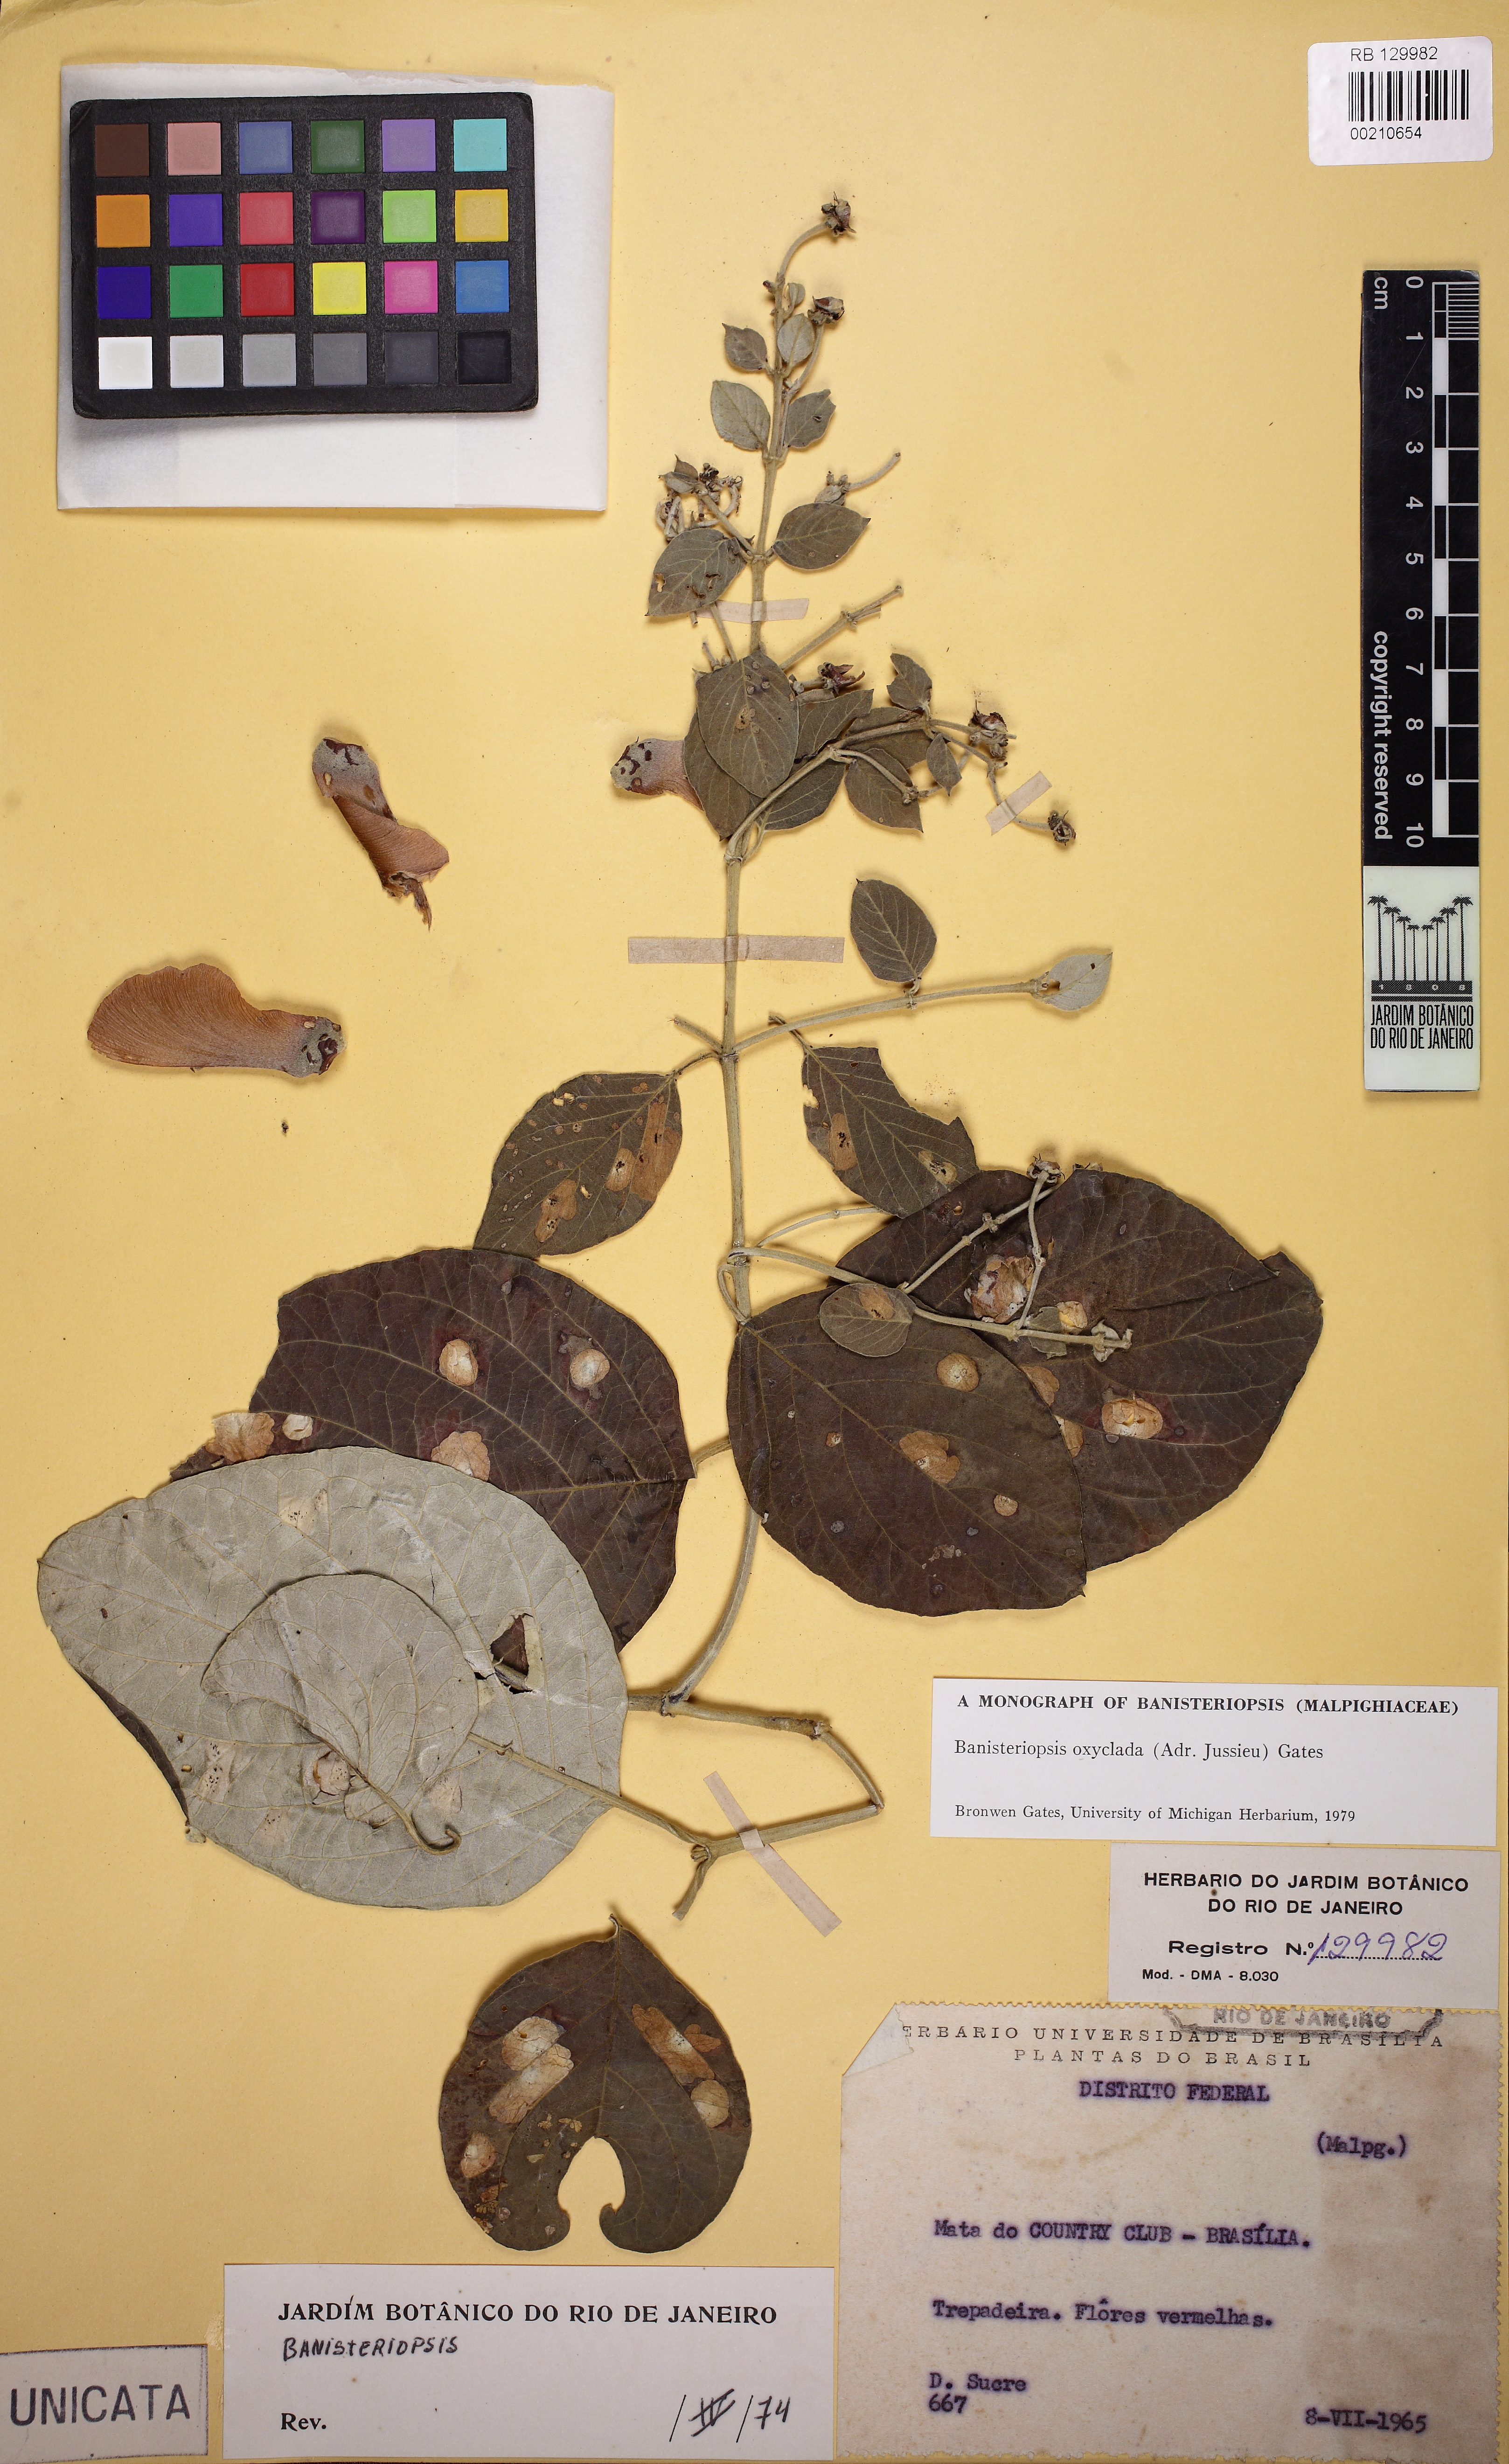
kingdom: Plantae
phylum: Tracheophyta
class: Magnoliopsida
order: Malpighiales
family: Malpighiaceae
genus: Banisteriopsis
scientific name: Banisteriopsis oxyclada
